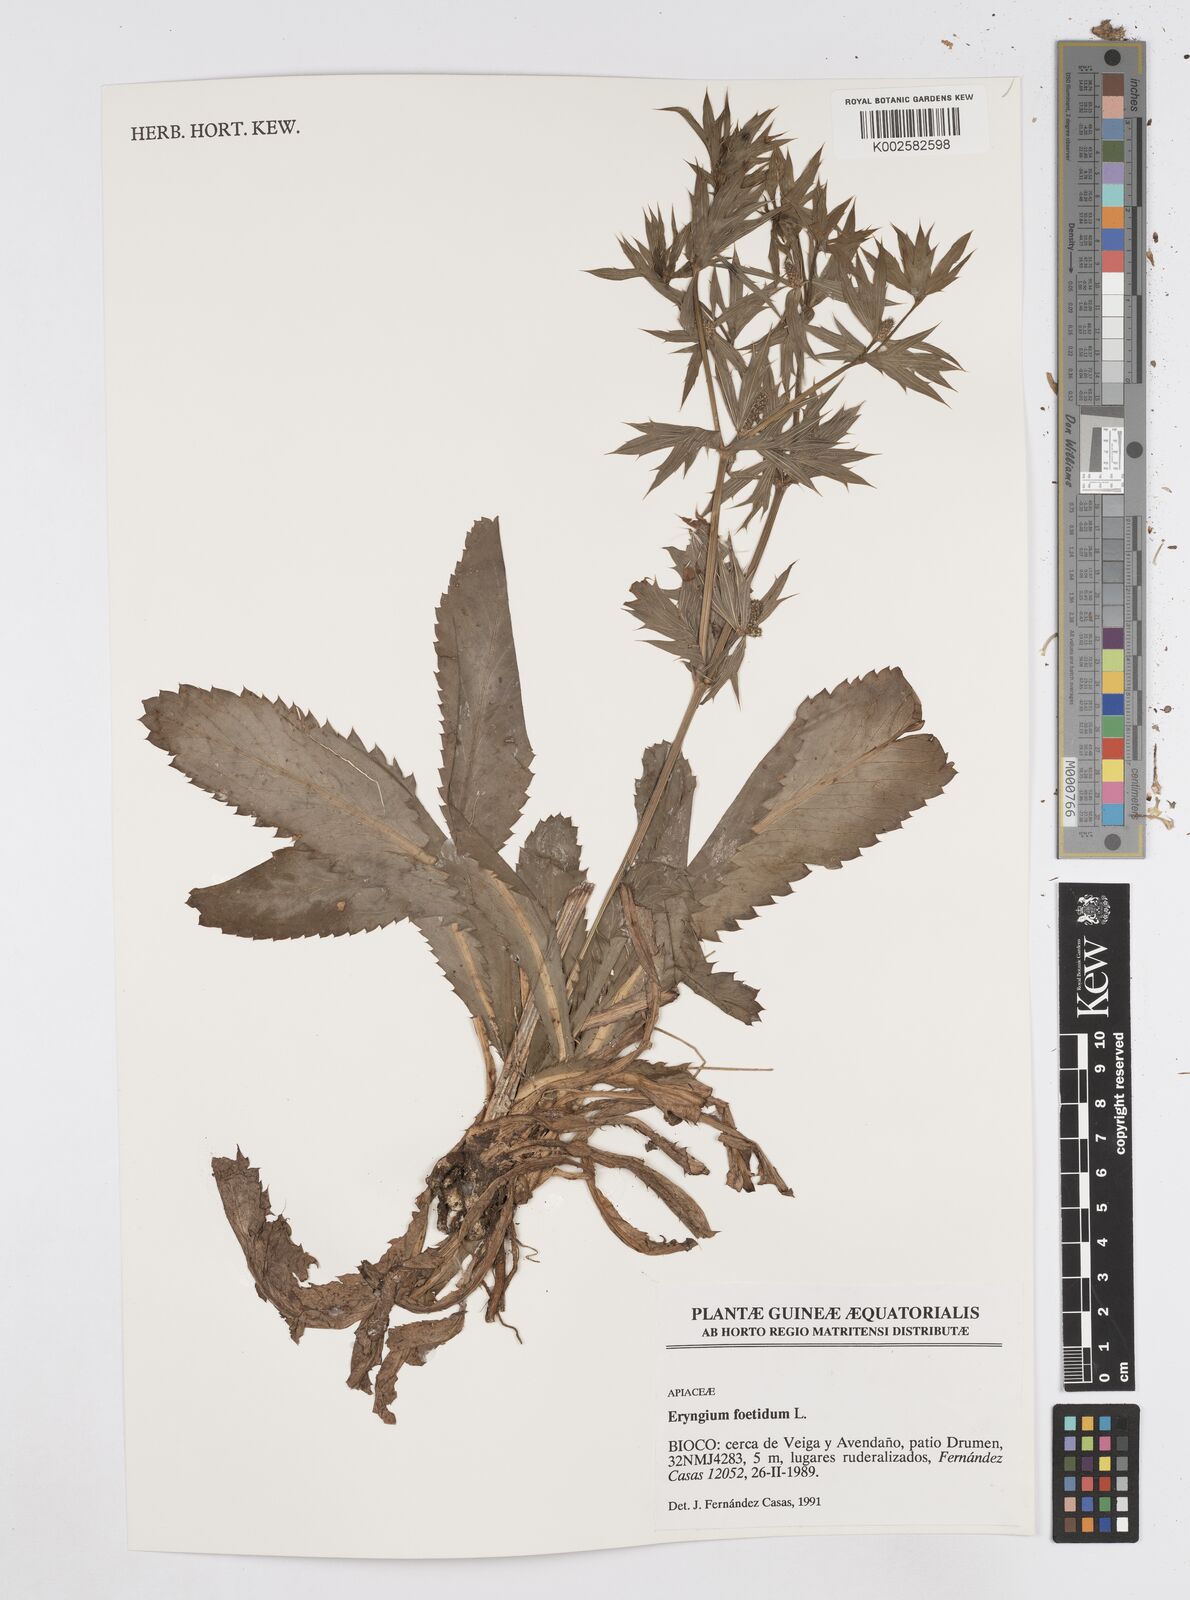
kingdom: Plantae
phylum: Tracheophyta
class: Magnoliopsida
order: Apiales
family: Apiaceae
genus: Eryngium
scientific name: Eryngium foetidum
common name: Fitweed
